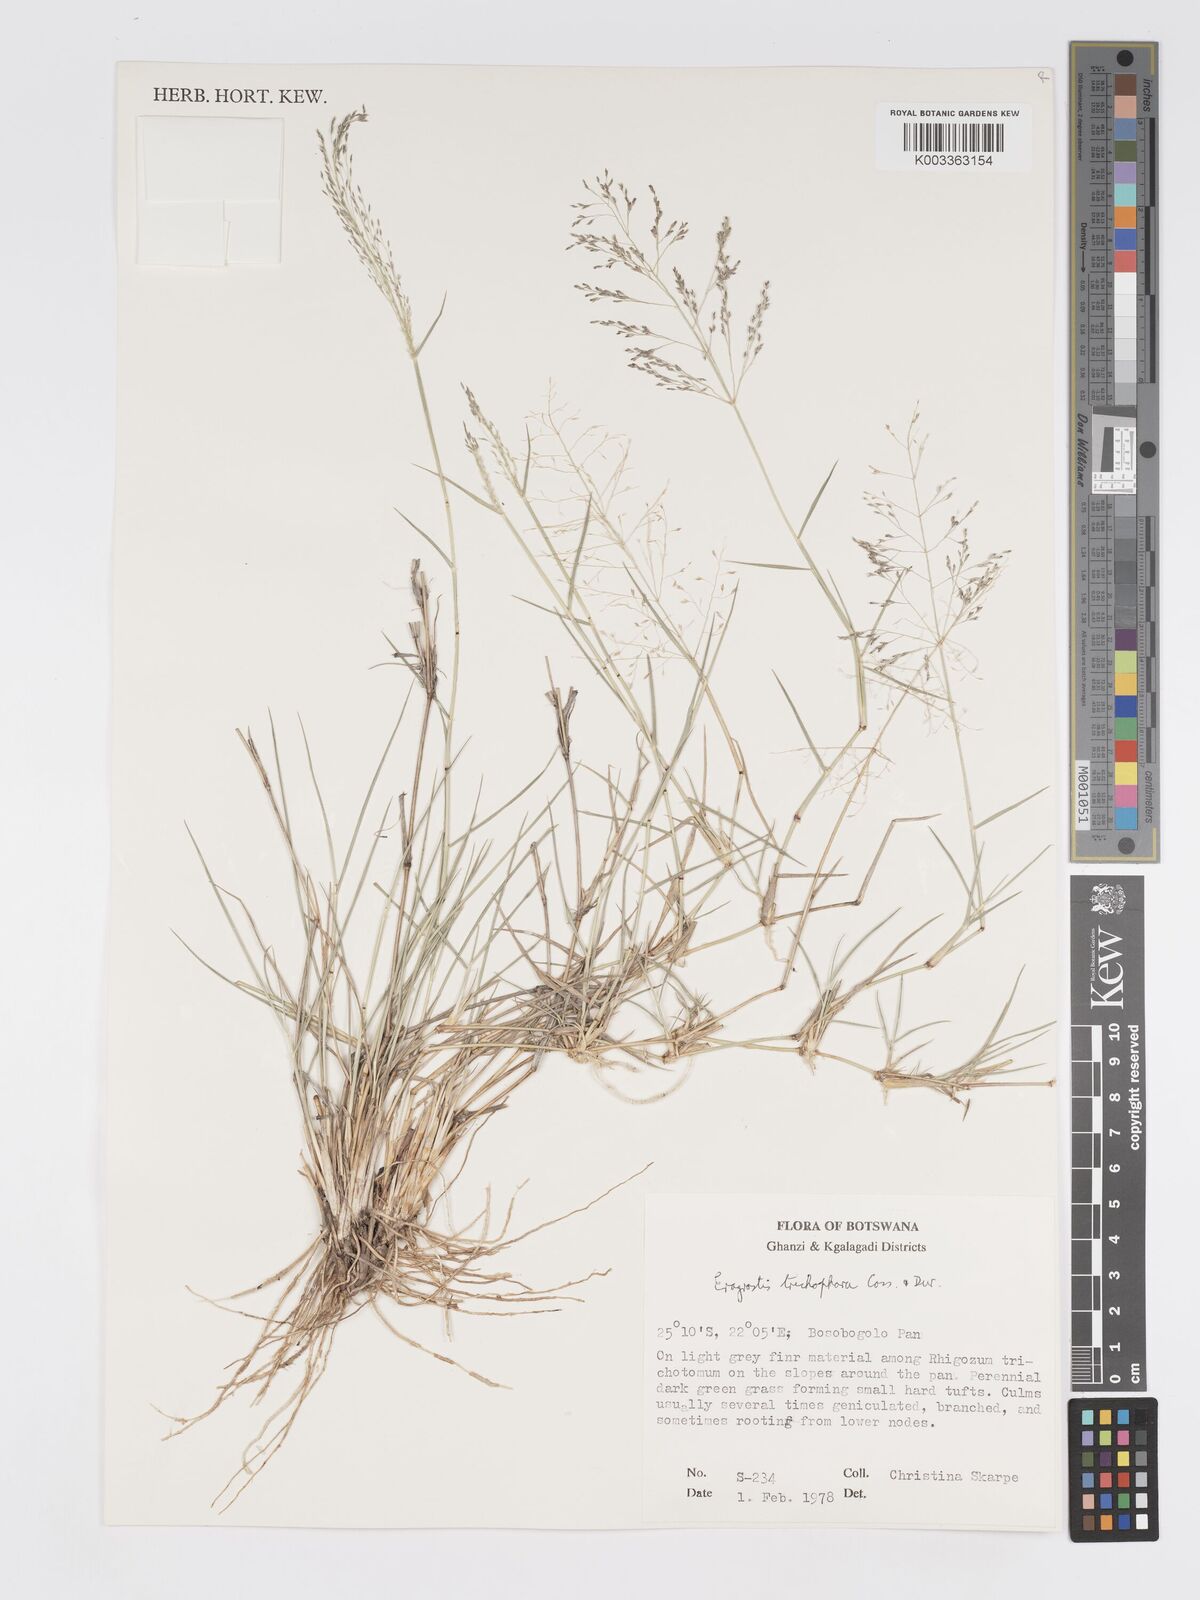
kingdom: Plantae
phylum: Tracheophyta
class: Liliopsida
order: Poales
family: Poaceae
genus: Eragrostis
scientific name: Eragrostis cylindriflora
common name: Cylinderflower lovegrass
